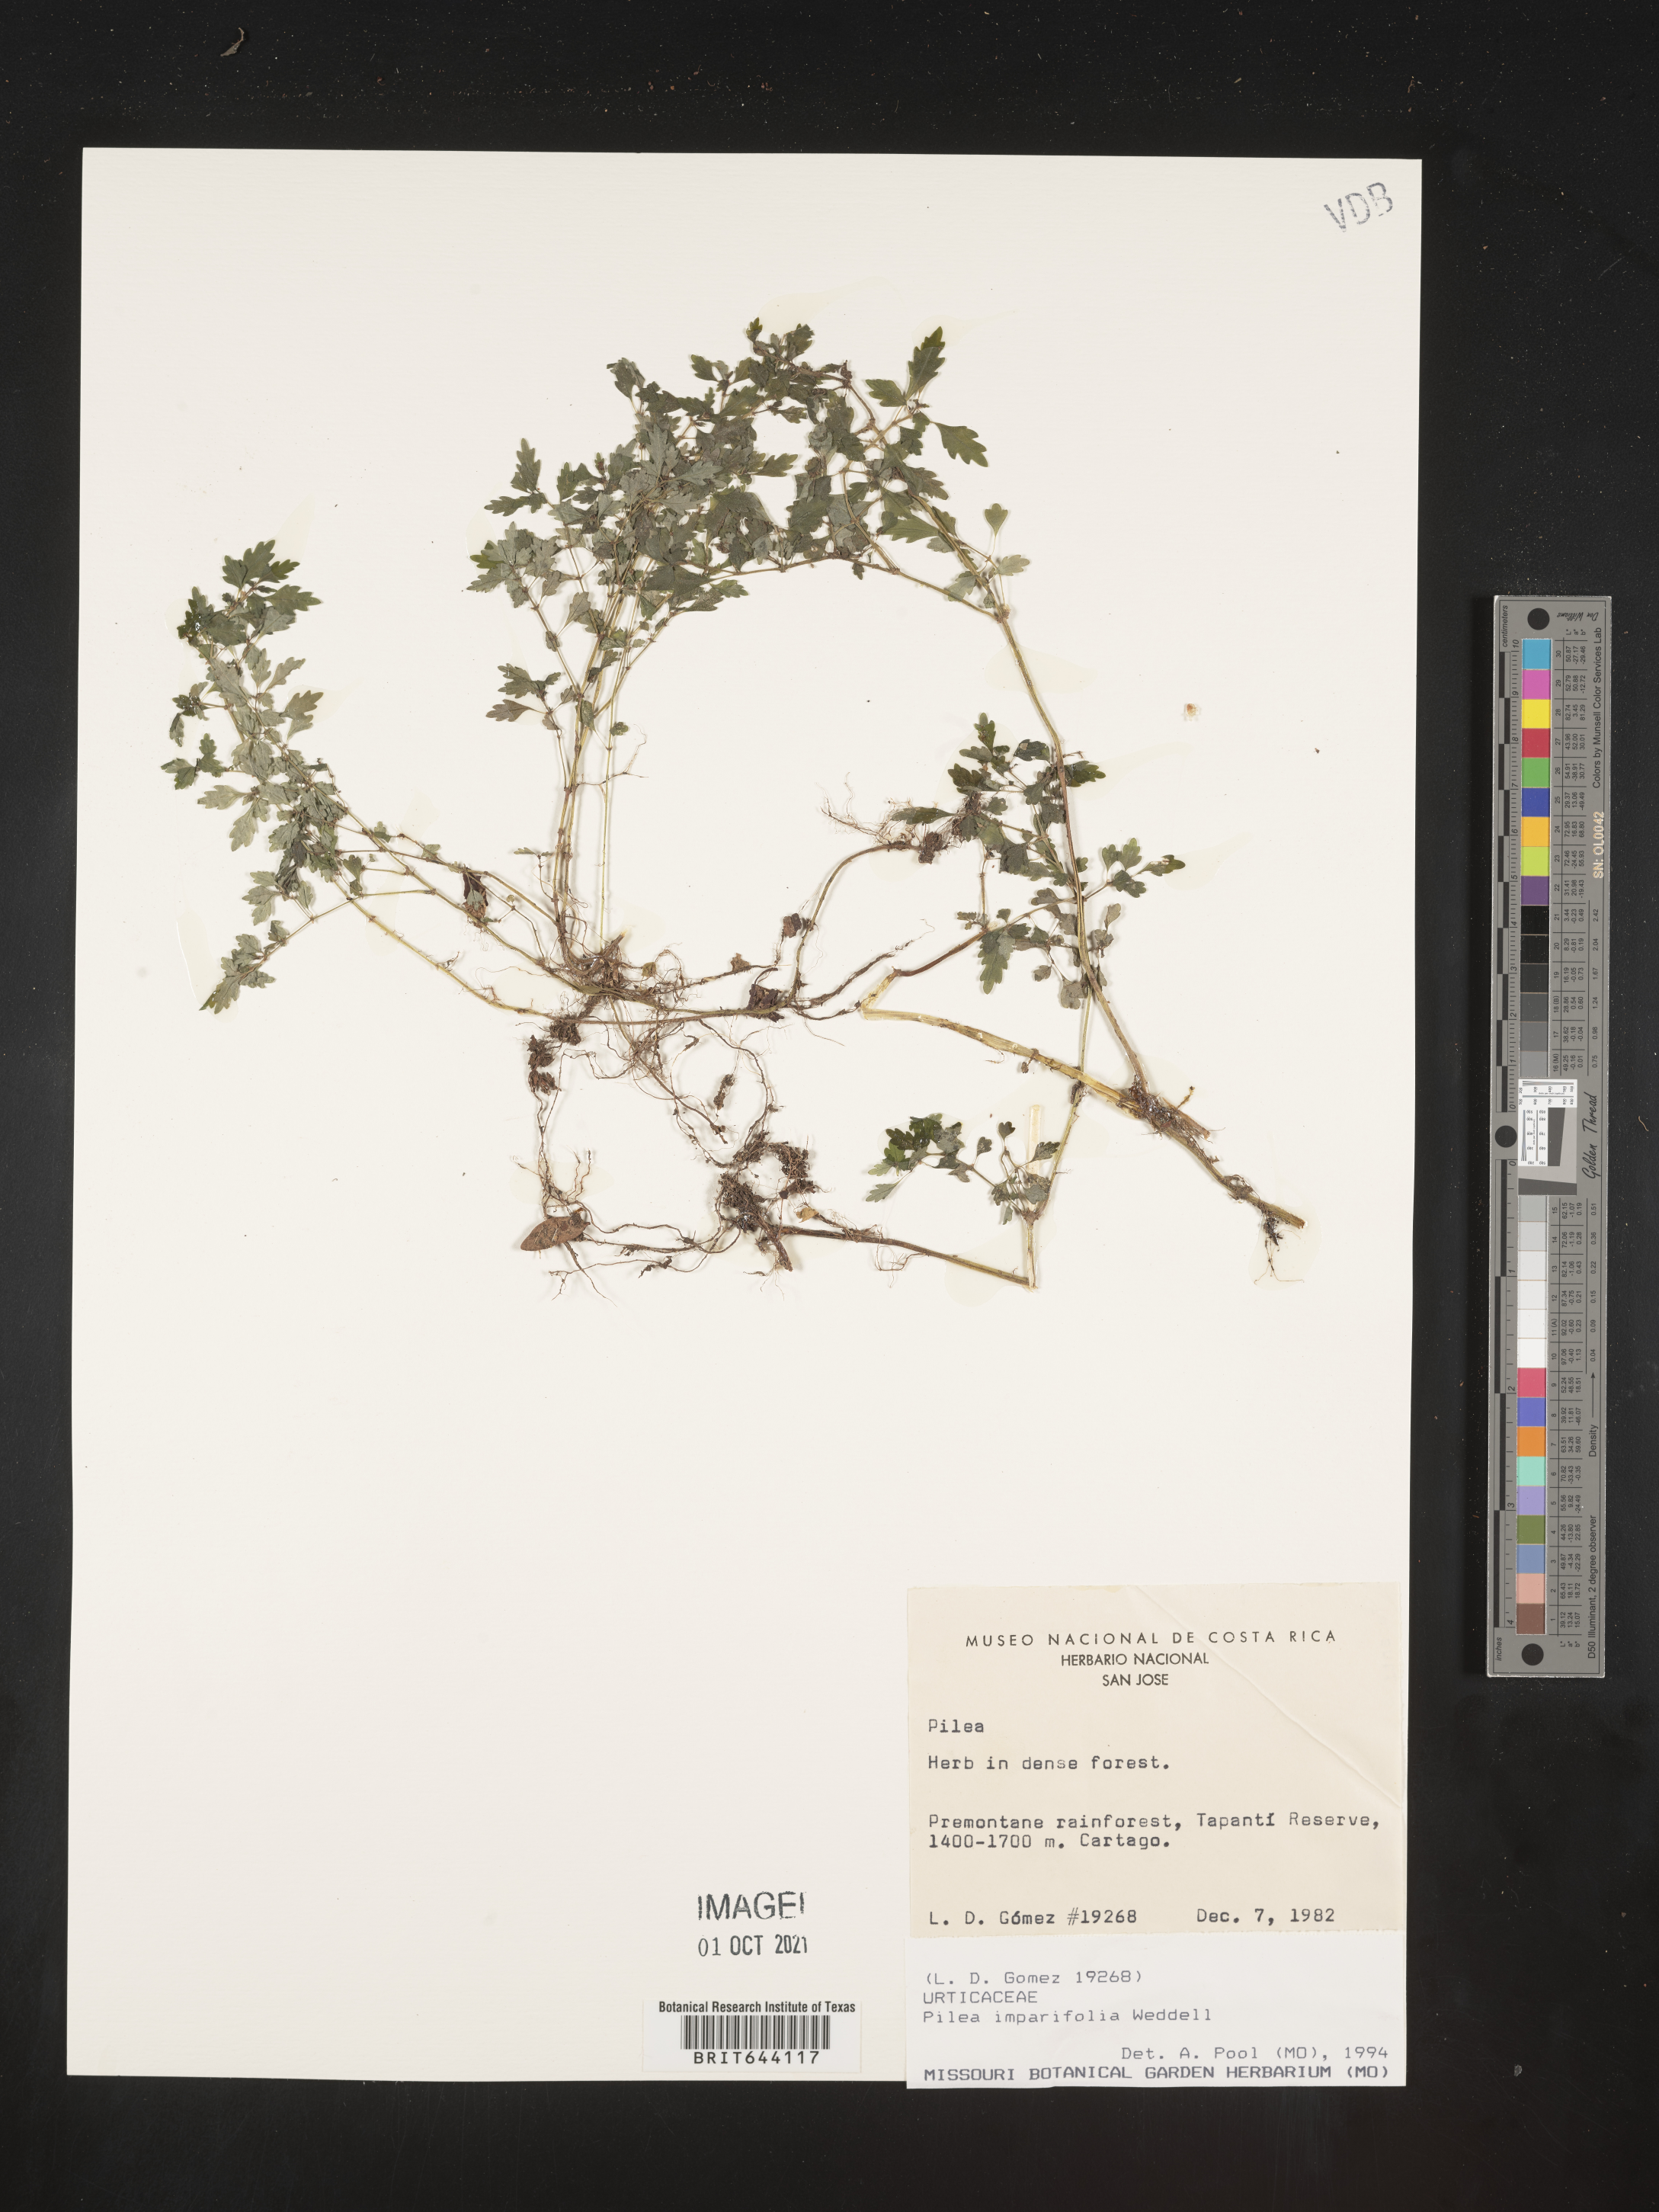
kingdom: Plantae
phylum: Tracheophyta
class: Magnoliopsida
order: Rosales
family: Urticaceae
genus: Pilea
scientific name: Pilea
